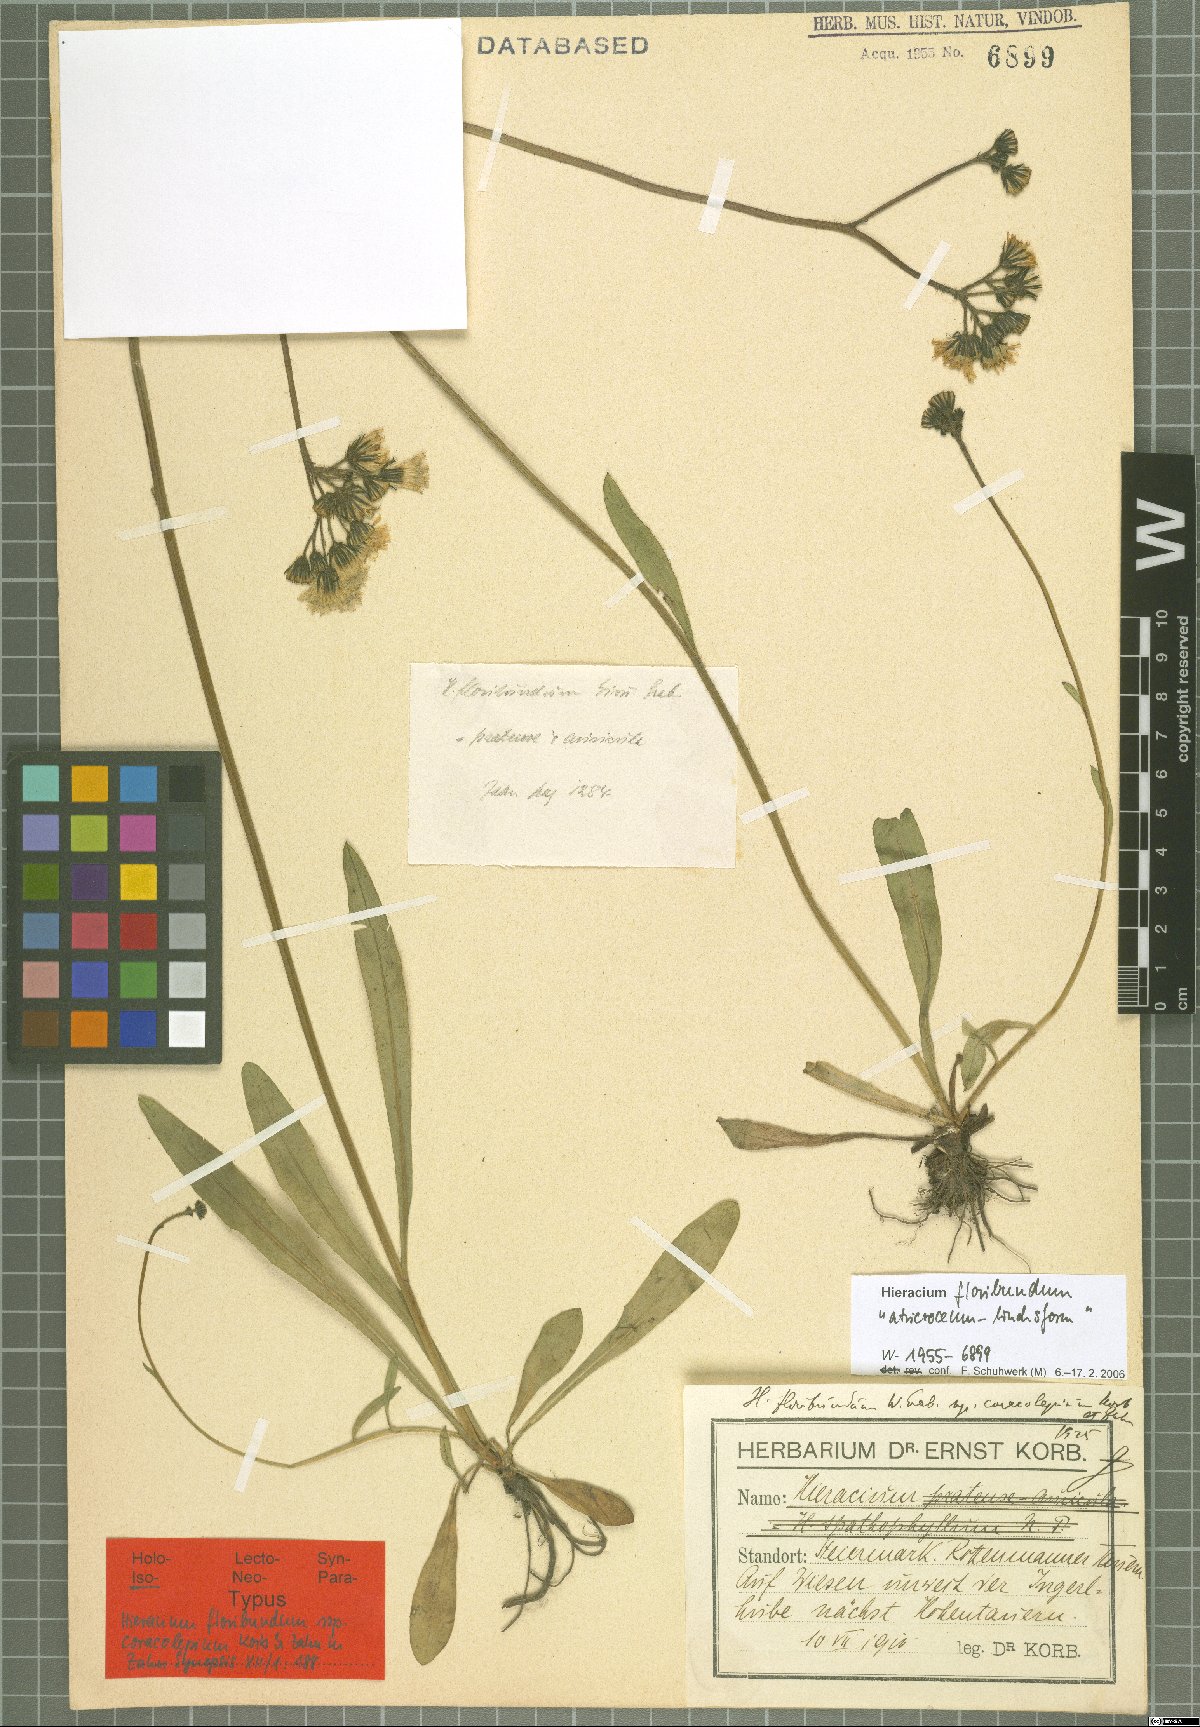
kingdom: Plantae
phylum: Tracheophyta
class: Magnoliopsida
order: Asterales
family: Asteraceae
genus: Pilosella
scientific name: Pilosella floribunda
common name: Glaucous hawkweed
